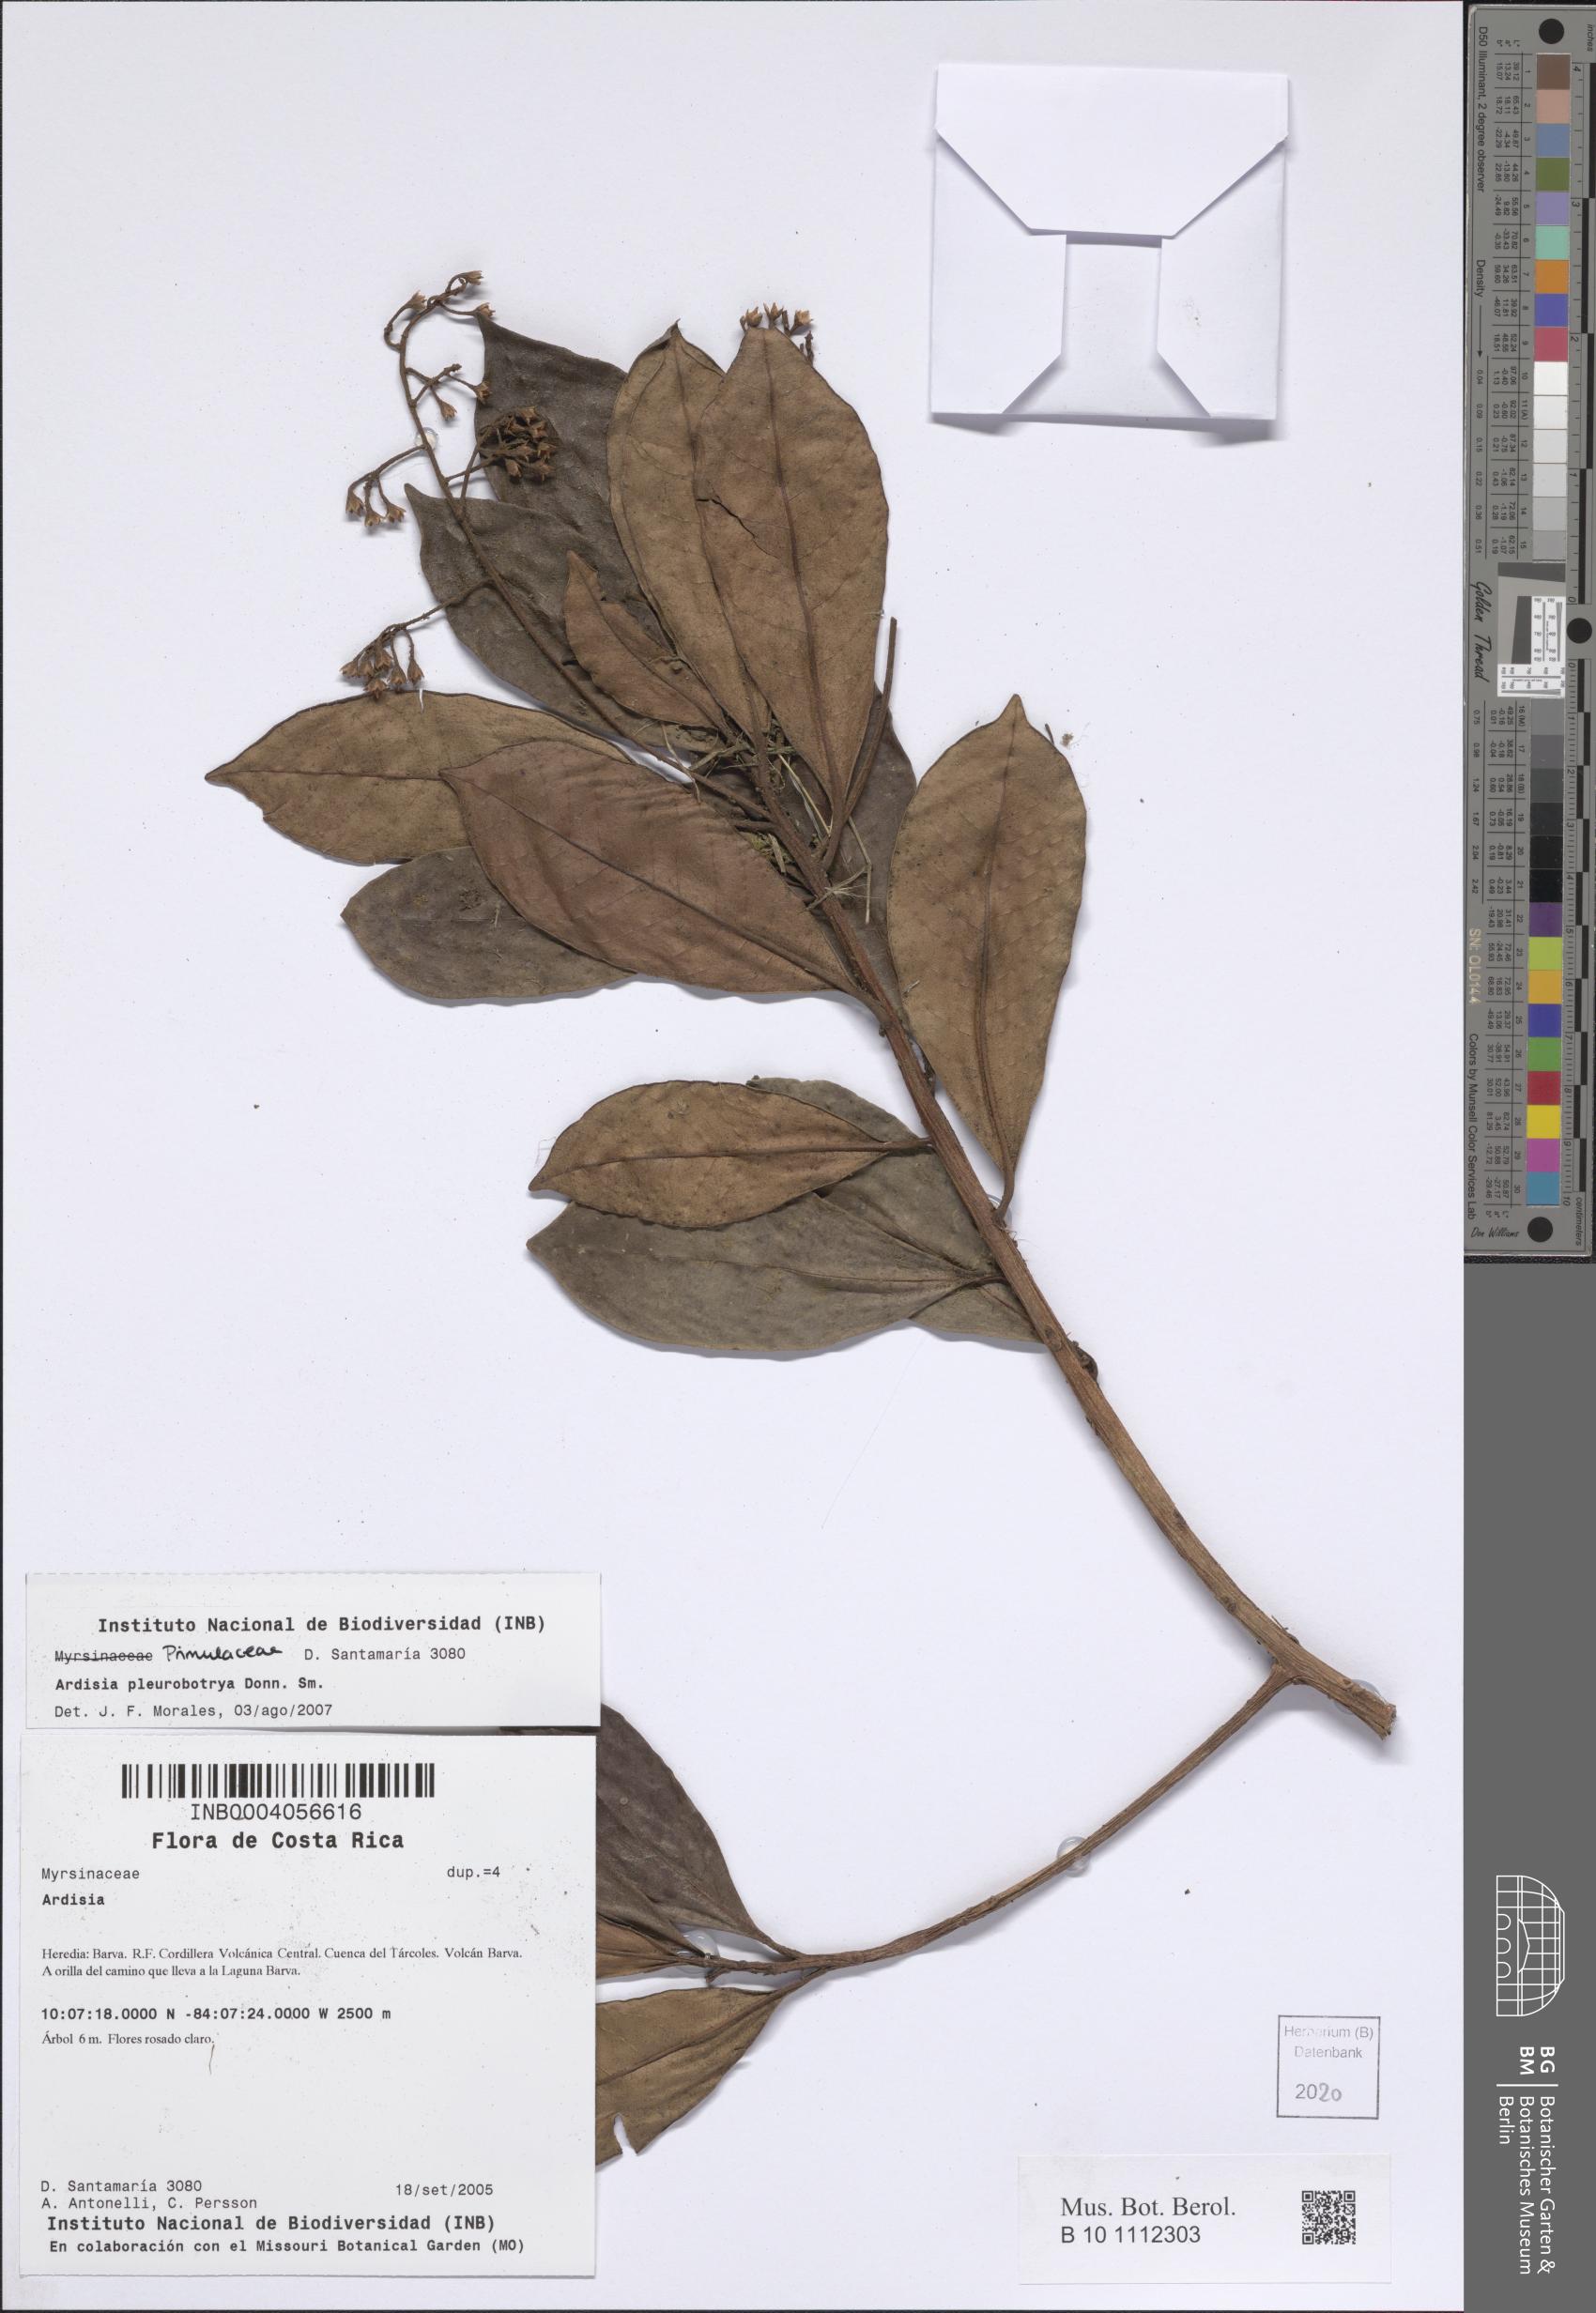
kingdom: Plantae
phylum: Tracheophyta
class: Magnoliopsida
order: Ericales
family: Primulaceae
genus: Ardisia
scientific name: Ardisia pleurobotrya
